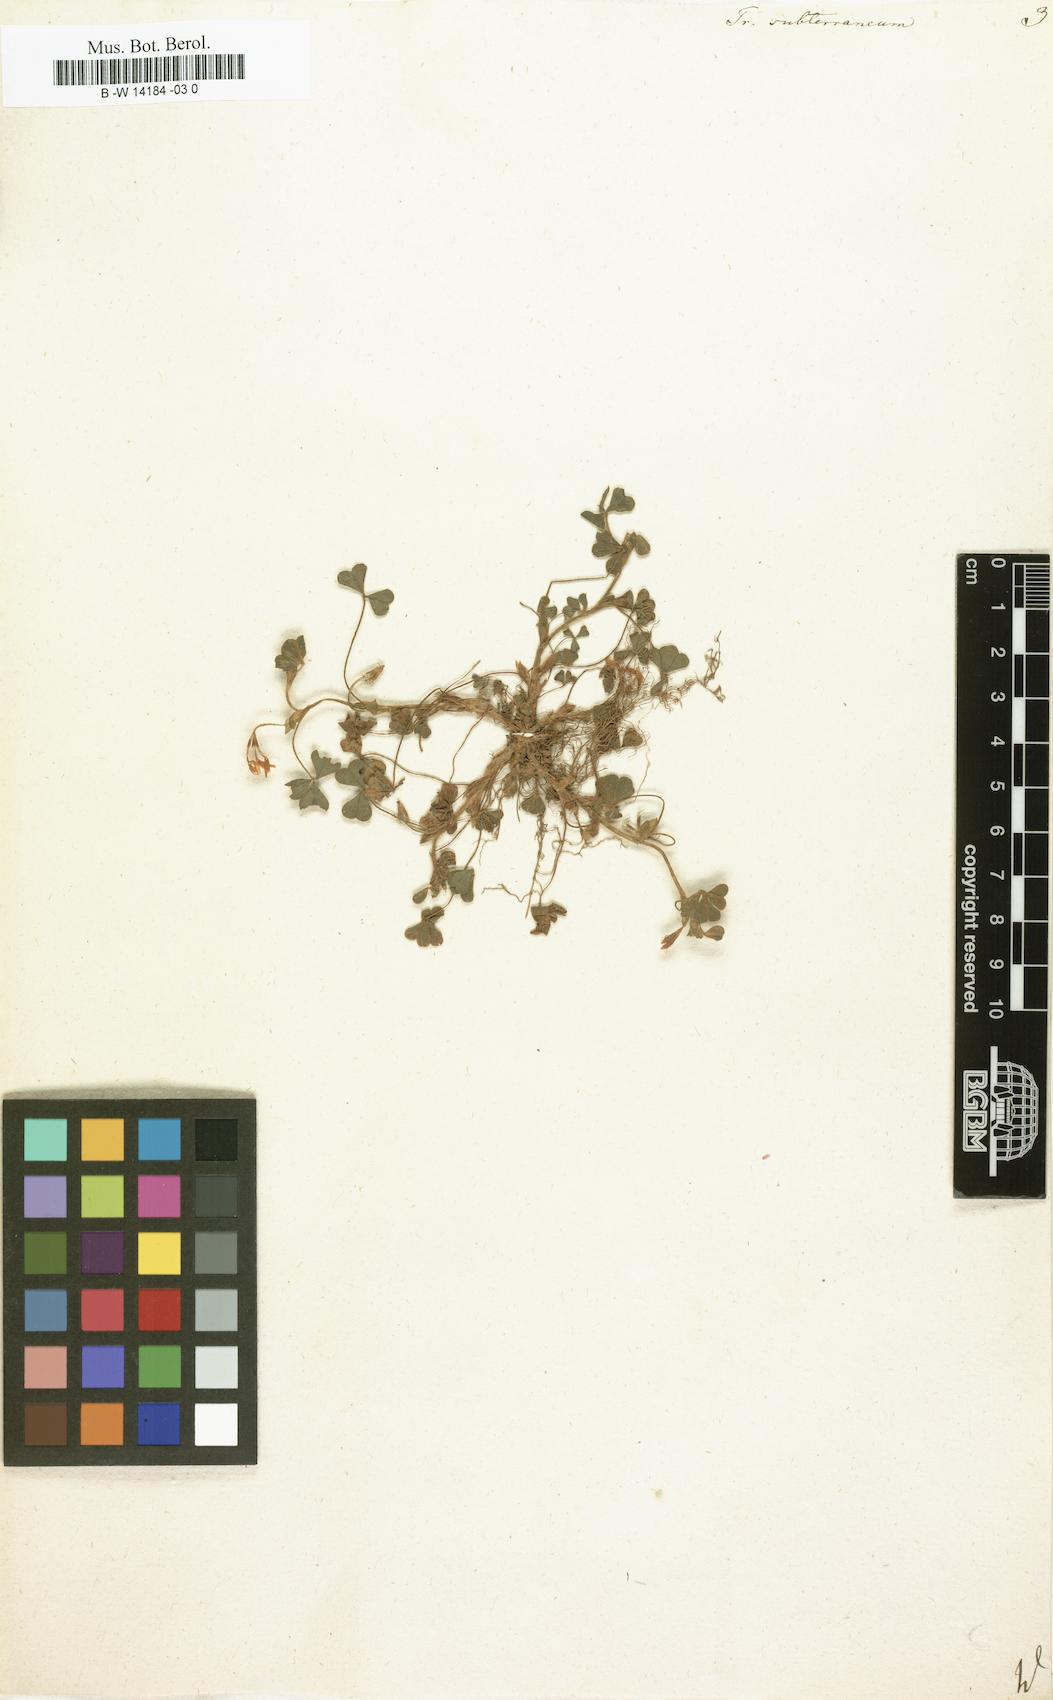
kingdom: Plantae
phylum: Tracheophyta
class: Magnoliopsida
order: Fabales
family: Fabaceae
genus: Trifolium
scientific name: Trifolium subterraneum
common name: Subterranean clover
